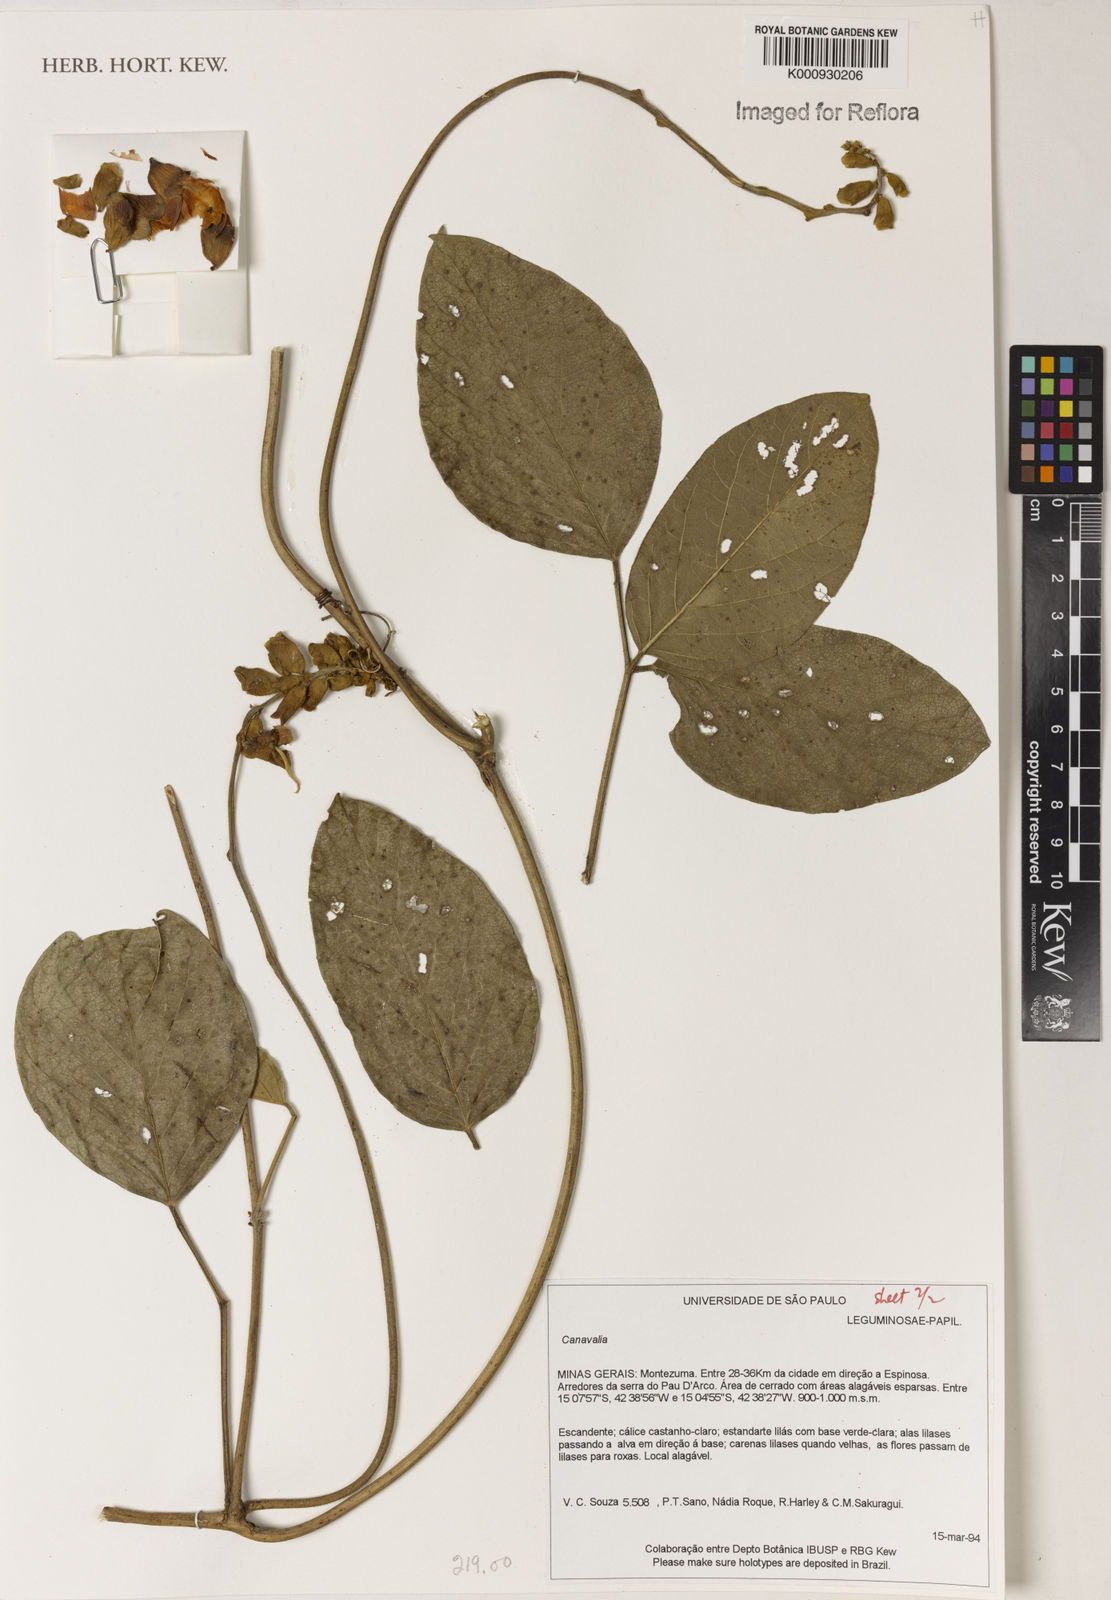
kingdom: Plantae
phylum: Tracheophyta
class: Magnoliopsida
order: Fabales
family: Fabaceae
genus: Canavalia
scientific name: Canavalia
